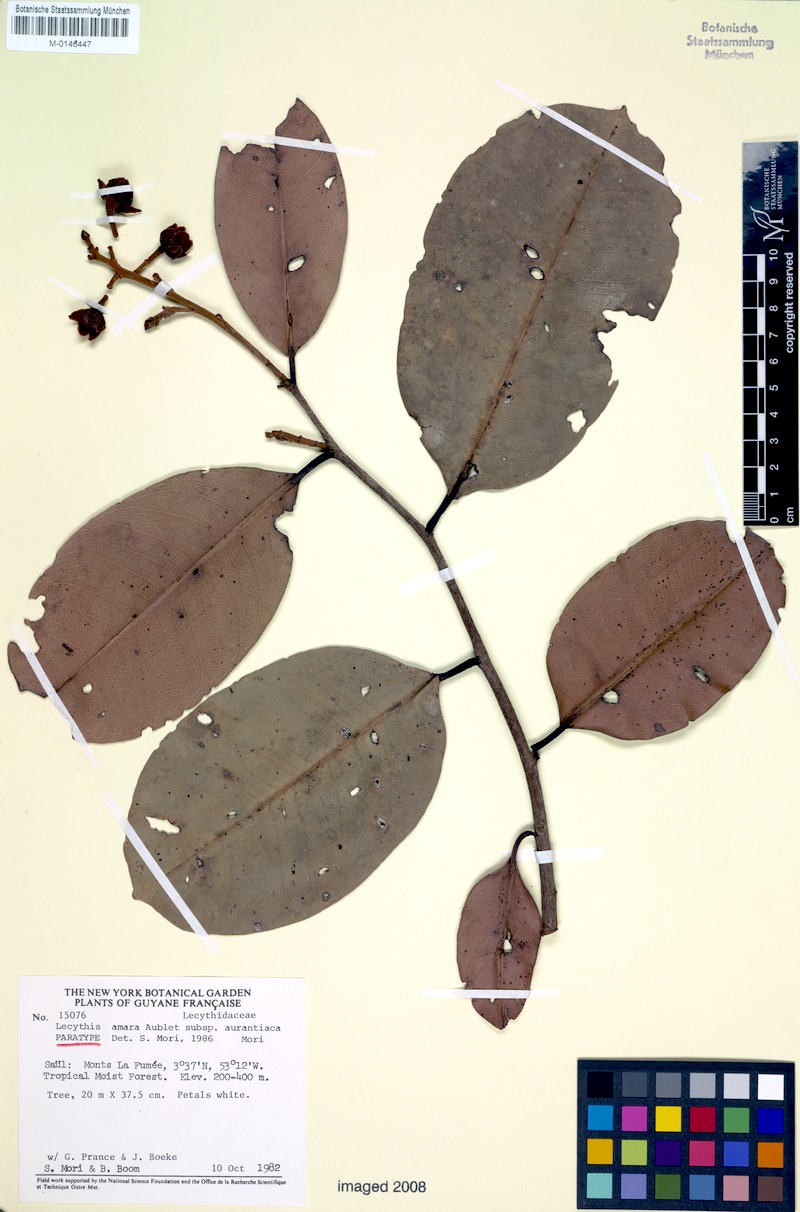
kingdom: Plantae
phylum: Tracheophyta
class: Magnoliopsida
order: Ericales
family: Lecythidaceae
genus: Lecythis
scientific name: Lecythis idatimon
